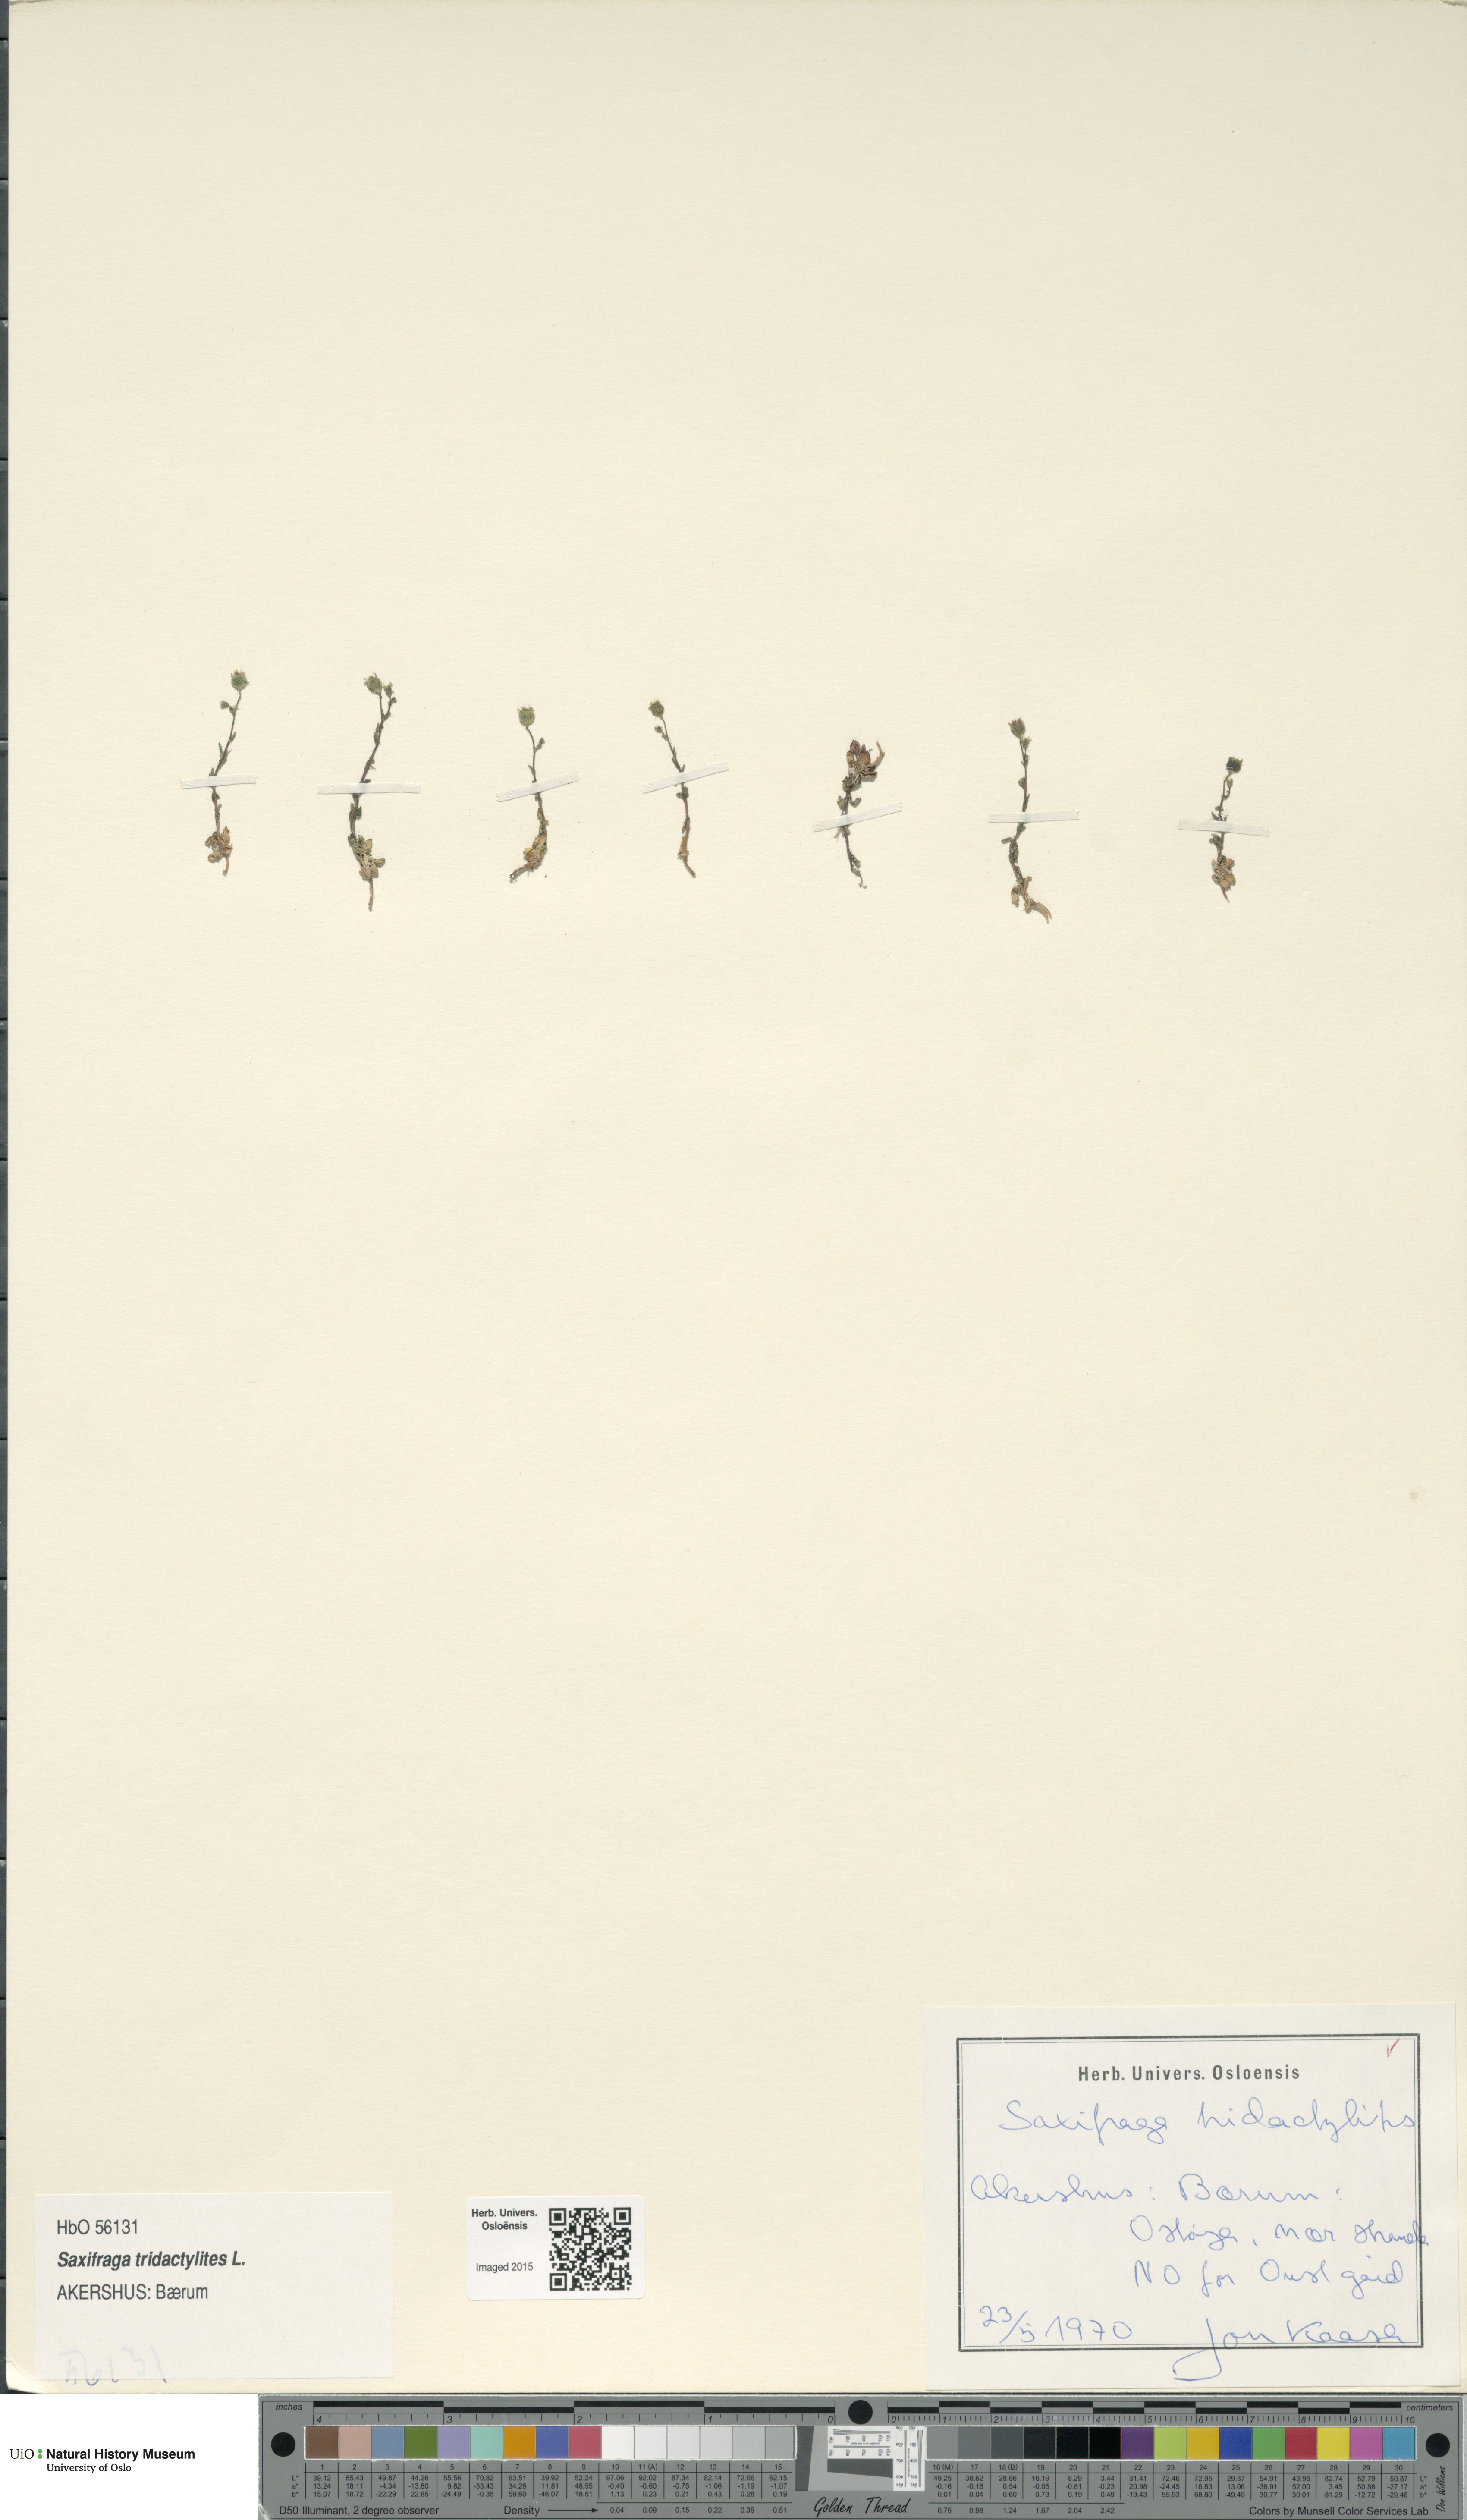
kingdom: Plantae
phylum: Tracheophyta
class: Magnoliopsida
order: Saxifragales
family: Saxifragaceae
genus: Saxifraga
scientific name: Saxifraga tridactylites
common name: Rue-leaved saxifrage
